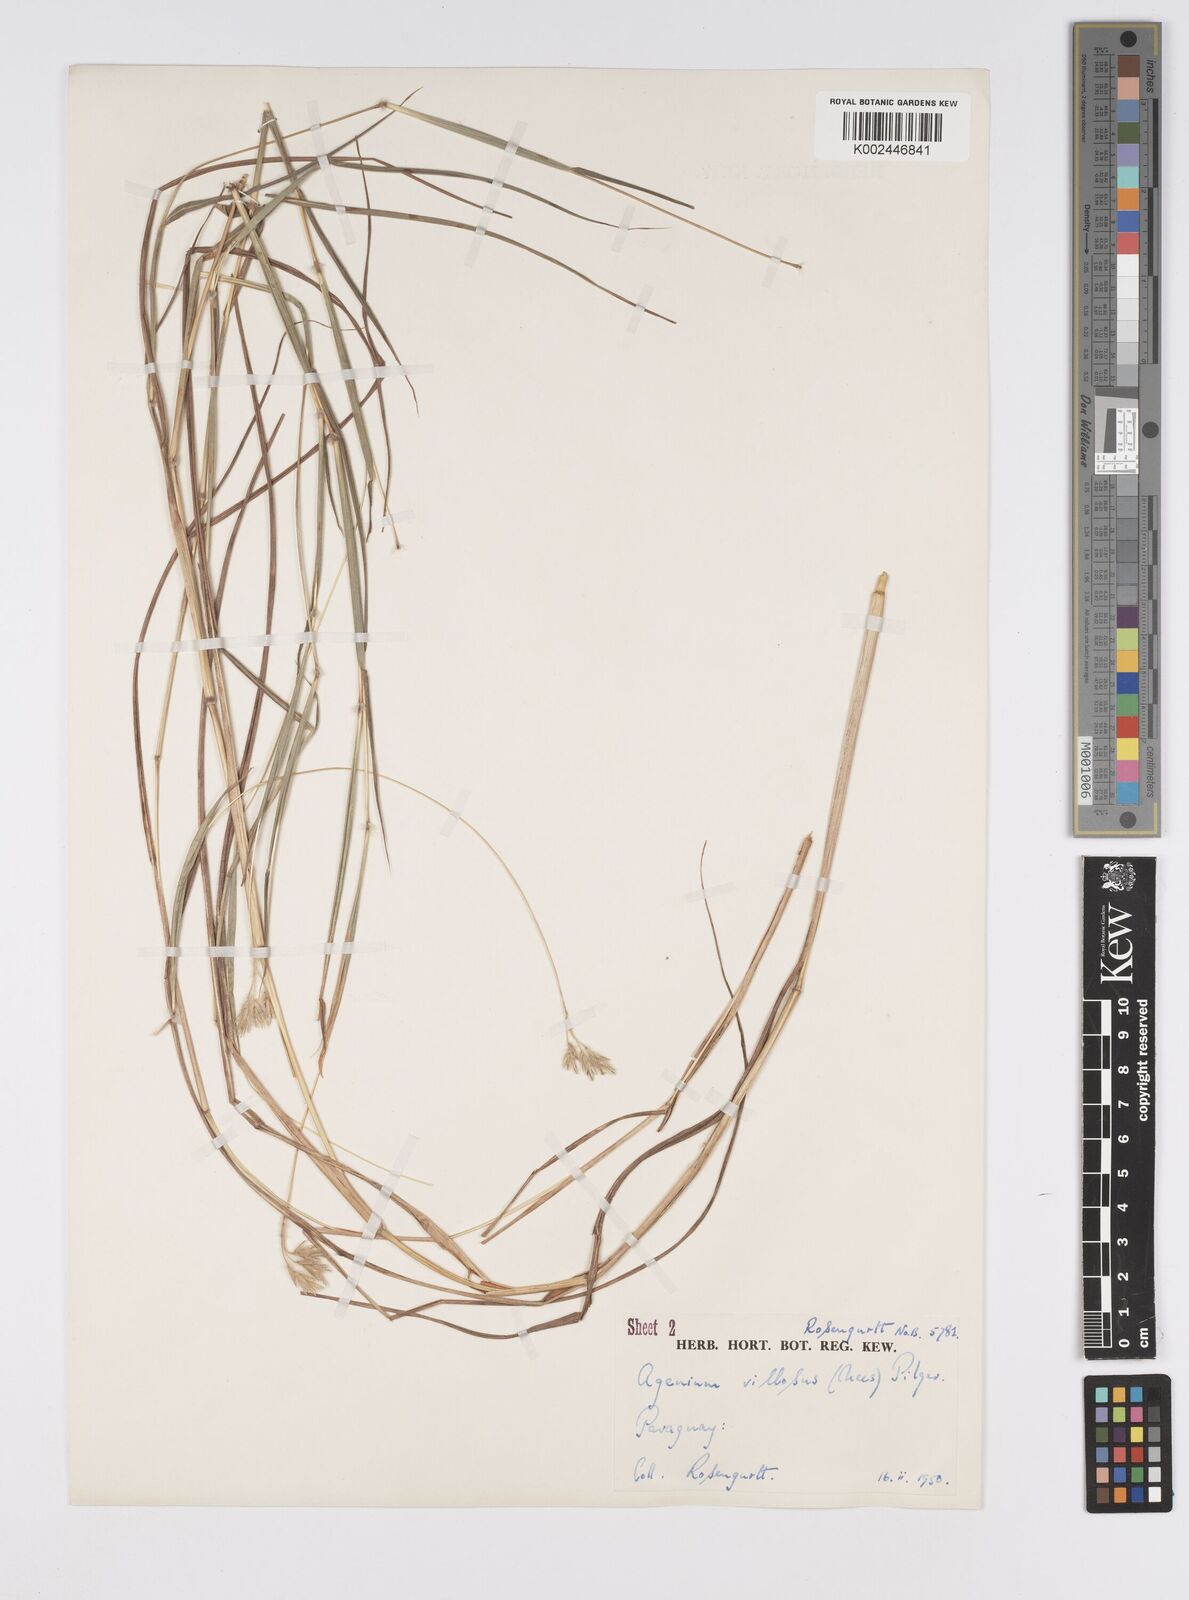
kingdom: Plantae
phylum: Tracheophyta
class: Liliopsida
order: Poales
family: Poaceae
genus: Agenium
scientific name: Agenium villosum
